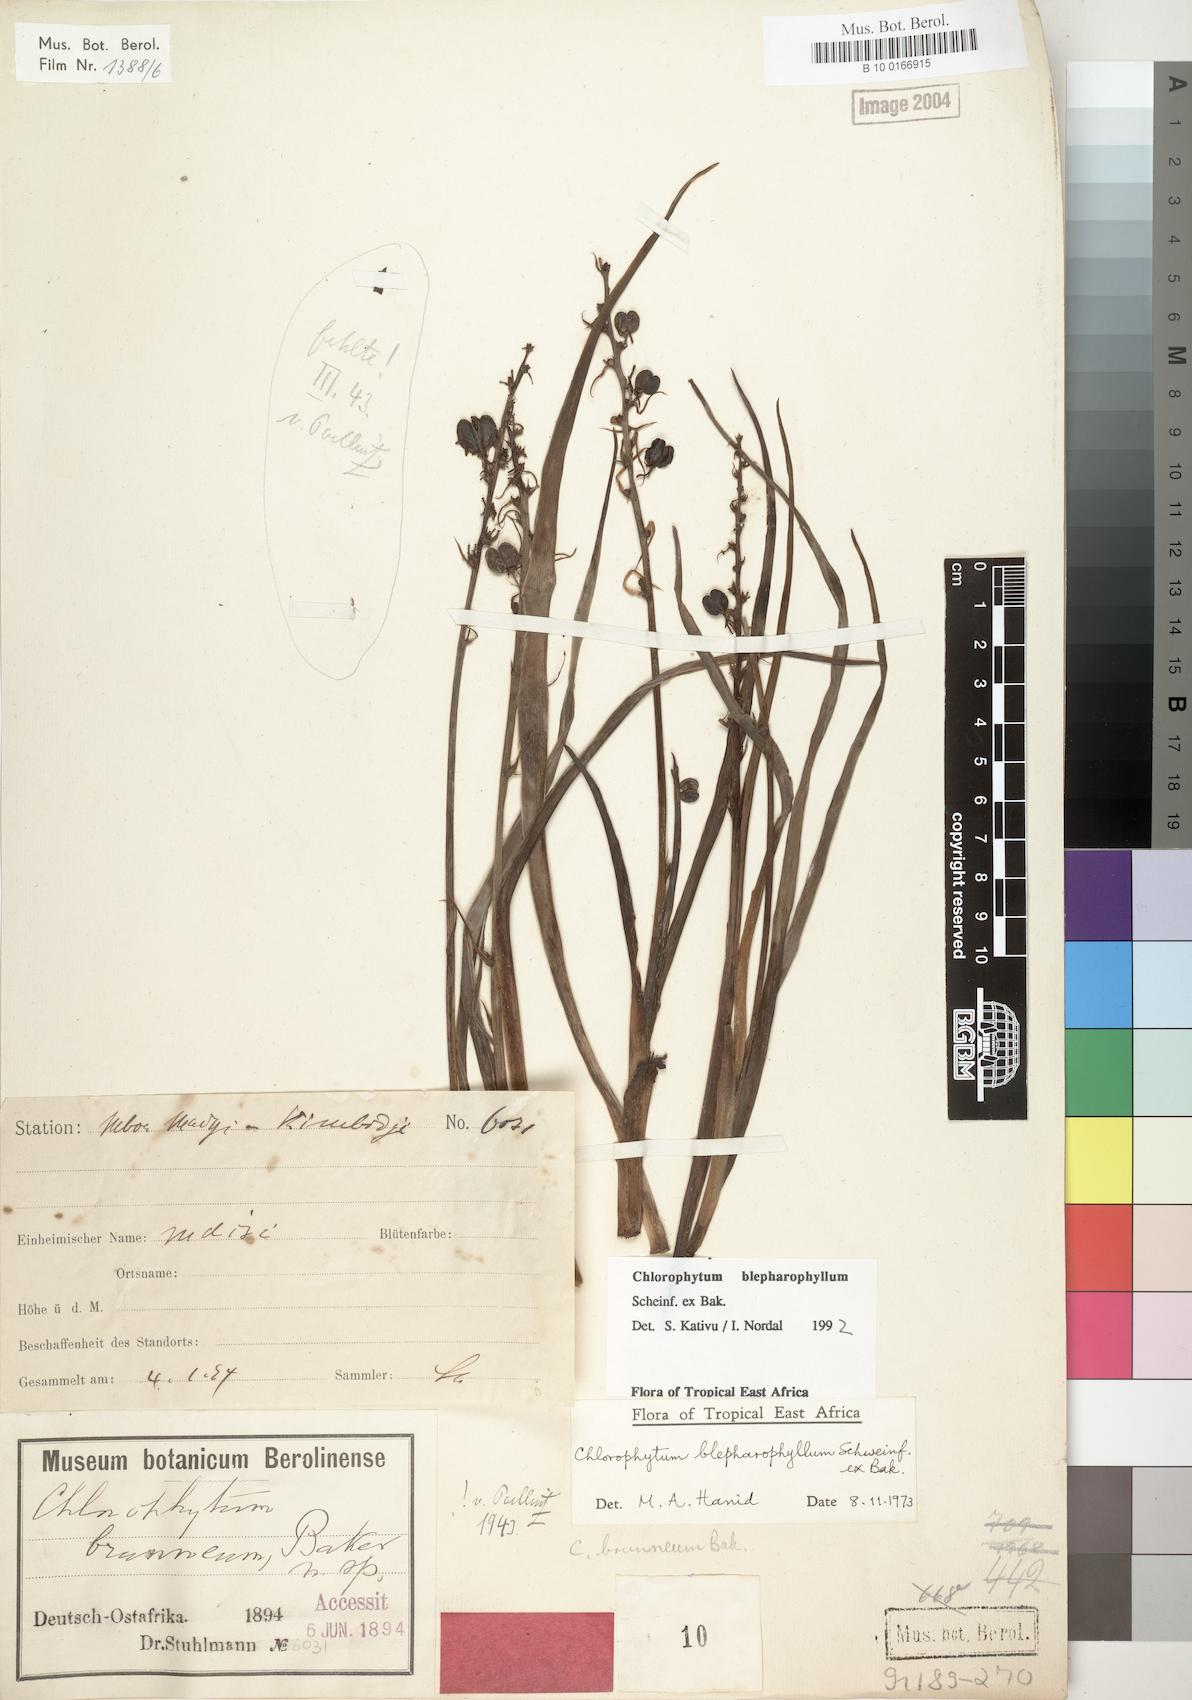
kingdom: Plantae
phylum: Tracheophyta
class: Liliopsida
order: Asparagales
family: Asparagaceae
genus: Chlorophytum
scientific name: Chlorophytum blepharophyllum
